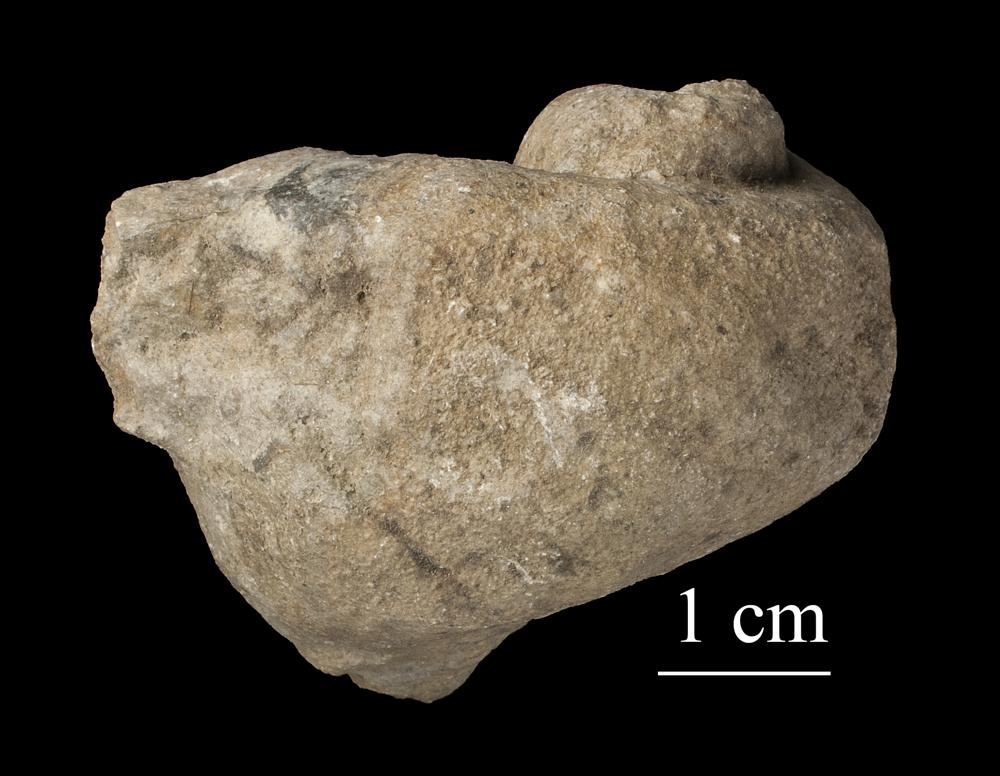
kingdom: Animalia
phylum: Mollusca
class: Gastropoda
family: Holopeidae
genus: Holopea
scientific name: Holopea
